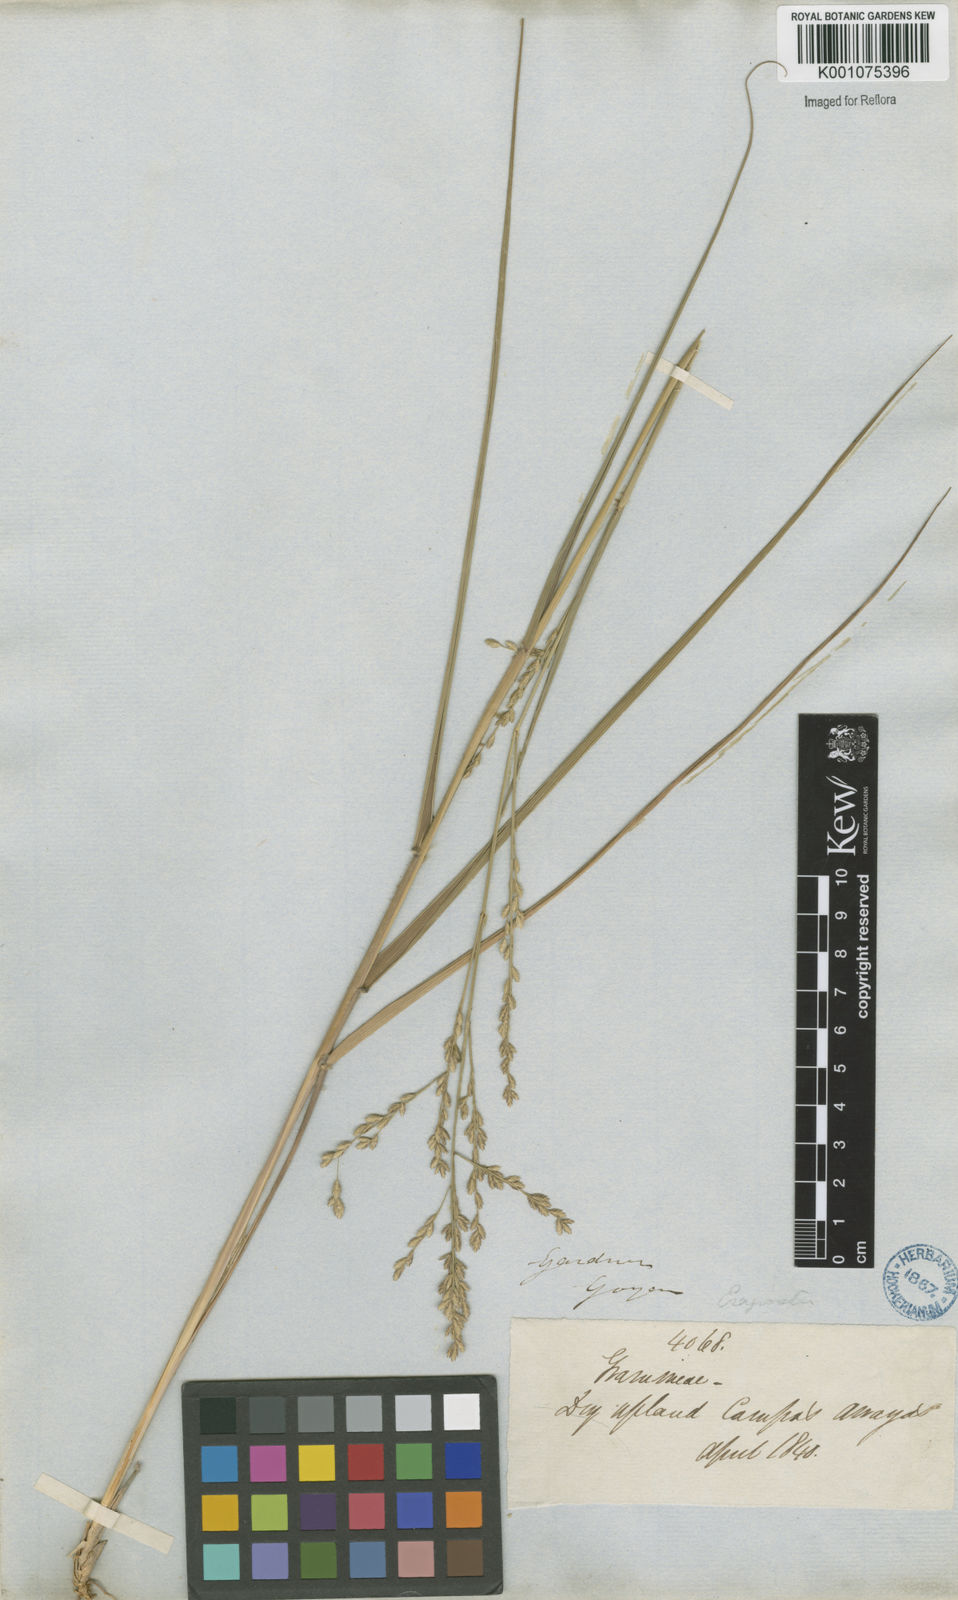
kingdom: Plantae
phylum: Tracheophyta
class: Liliopsida
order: Poales
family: Poaceae
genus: Eragrostis
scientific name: Eragrostis solida
